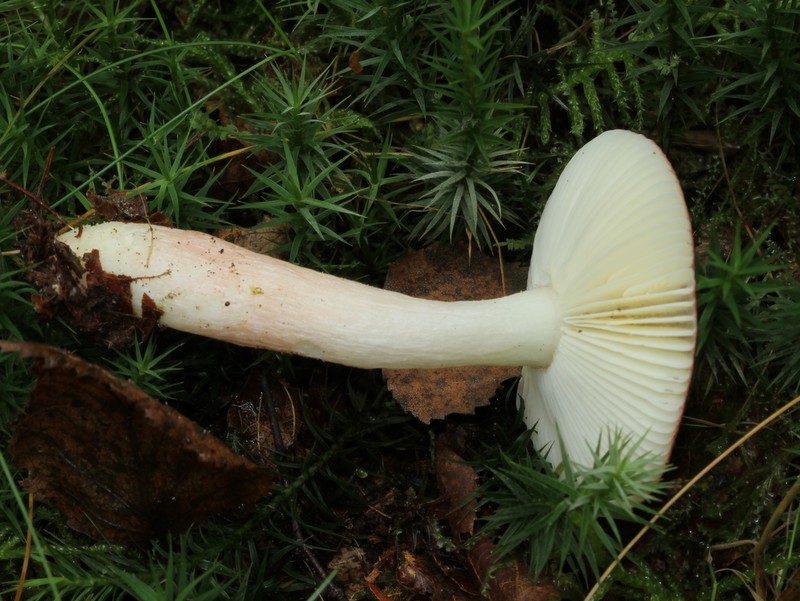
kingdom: Fungi
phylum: Basidiomycota
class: Agaricomycetes
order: Russulales
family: Russulaceae
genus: Russula
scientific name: Russula nitida
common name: året skørhat
